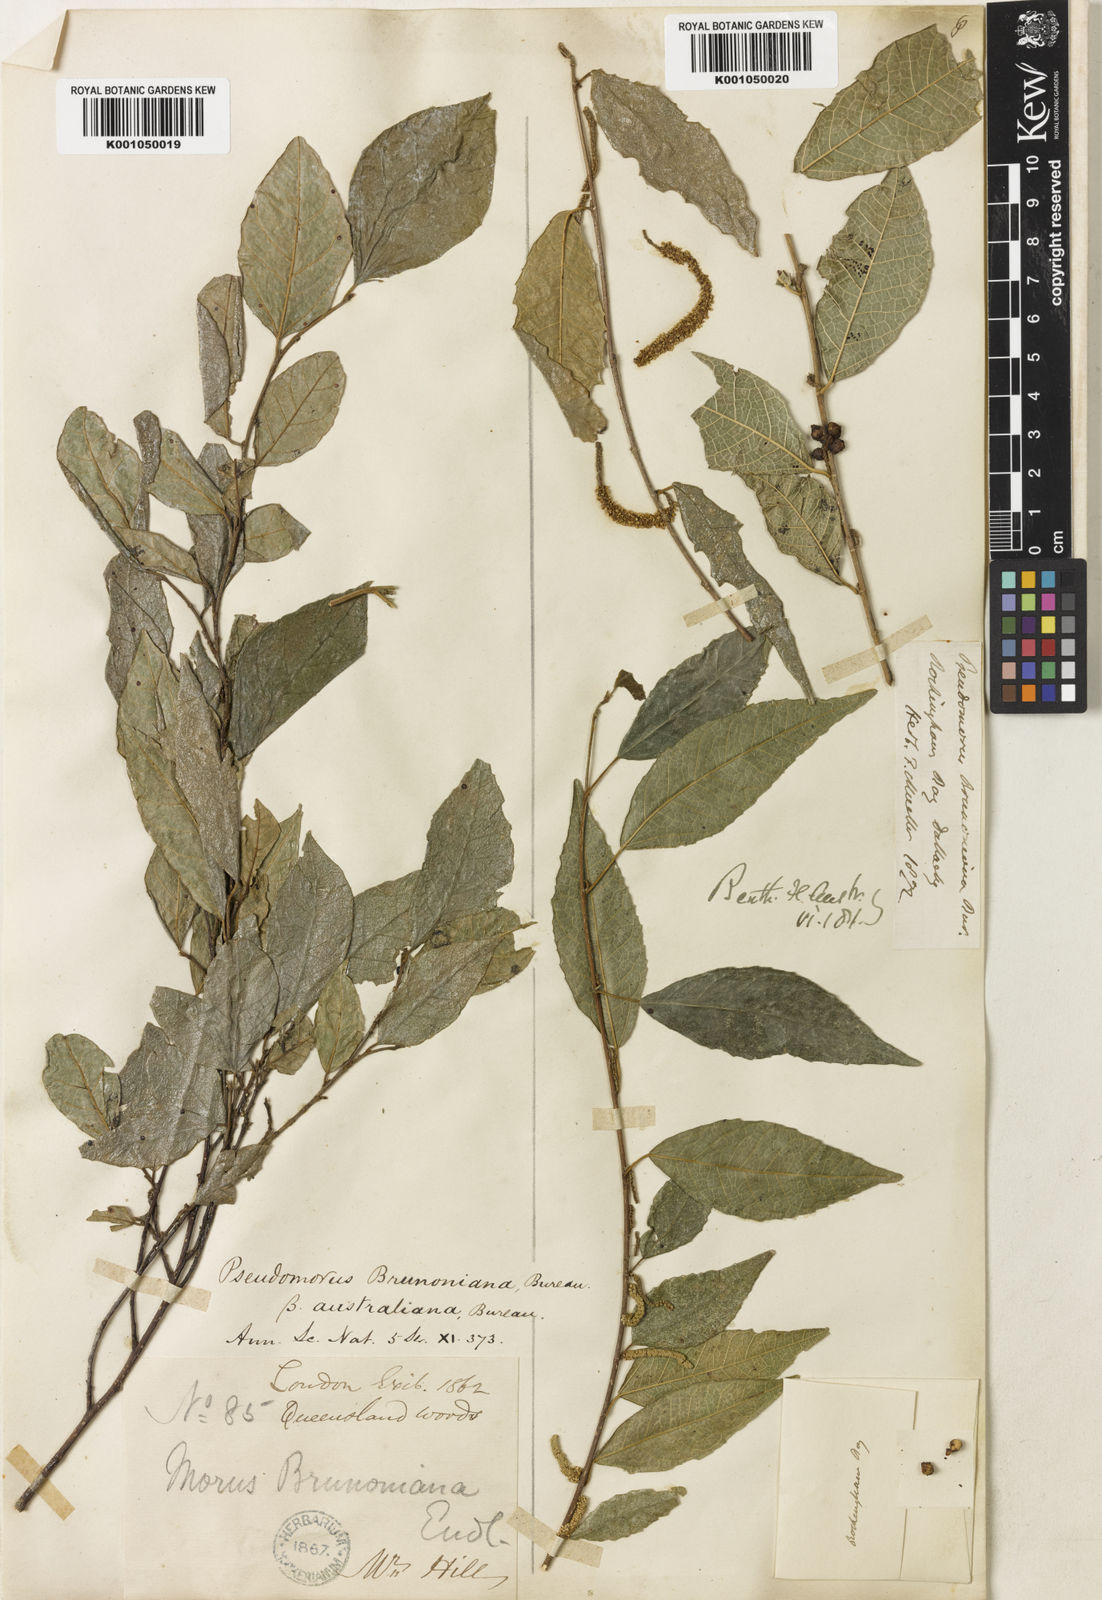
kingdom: Plantae
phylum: Tracheophyta
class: Magnoliopsida
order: Rosales
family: Moraceae
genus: Paratrophis
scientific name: Paratrophis pendulina
